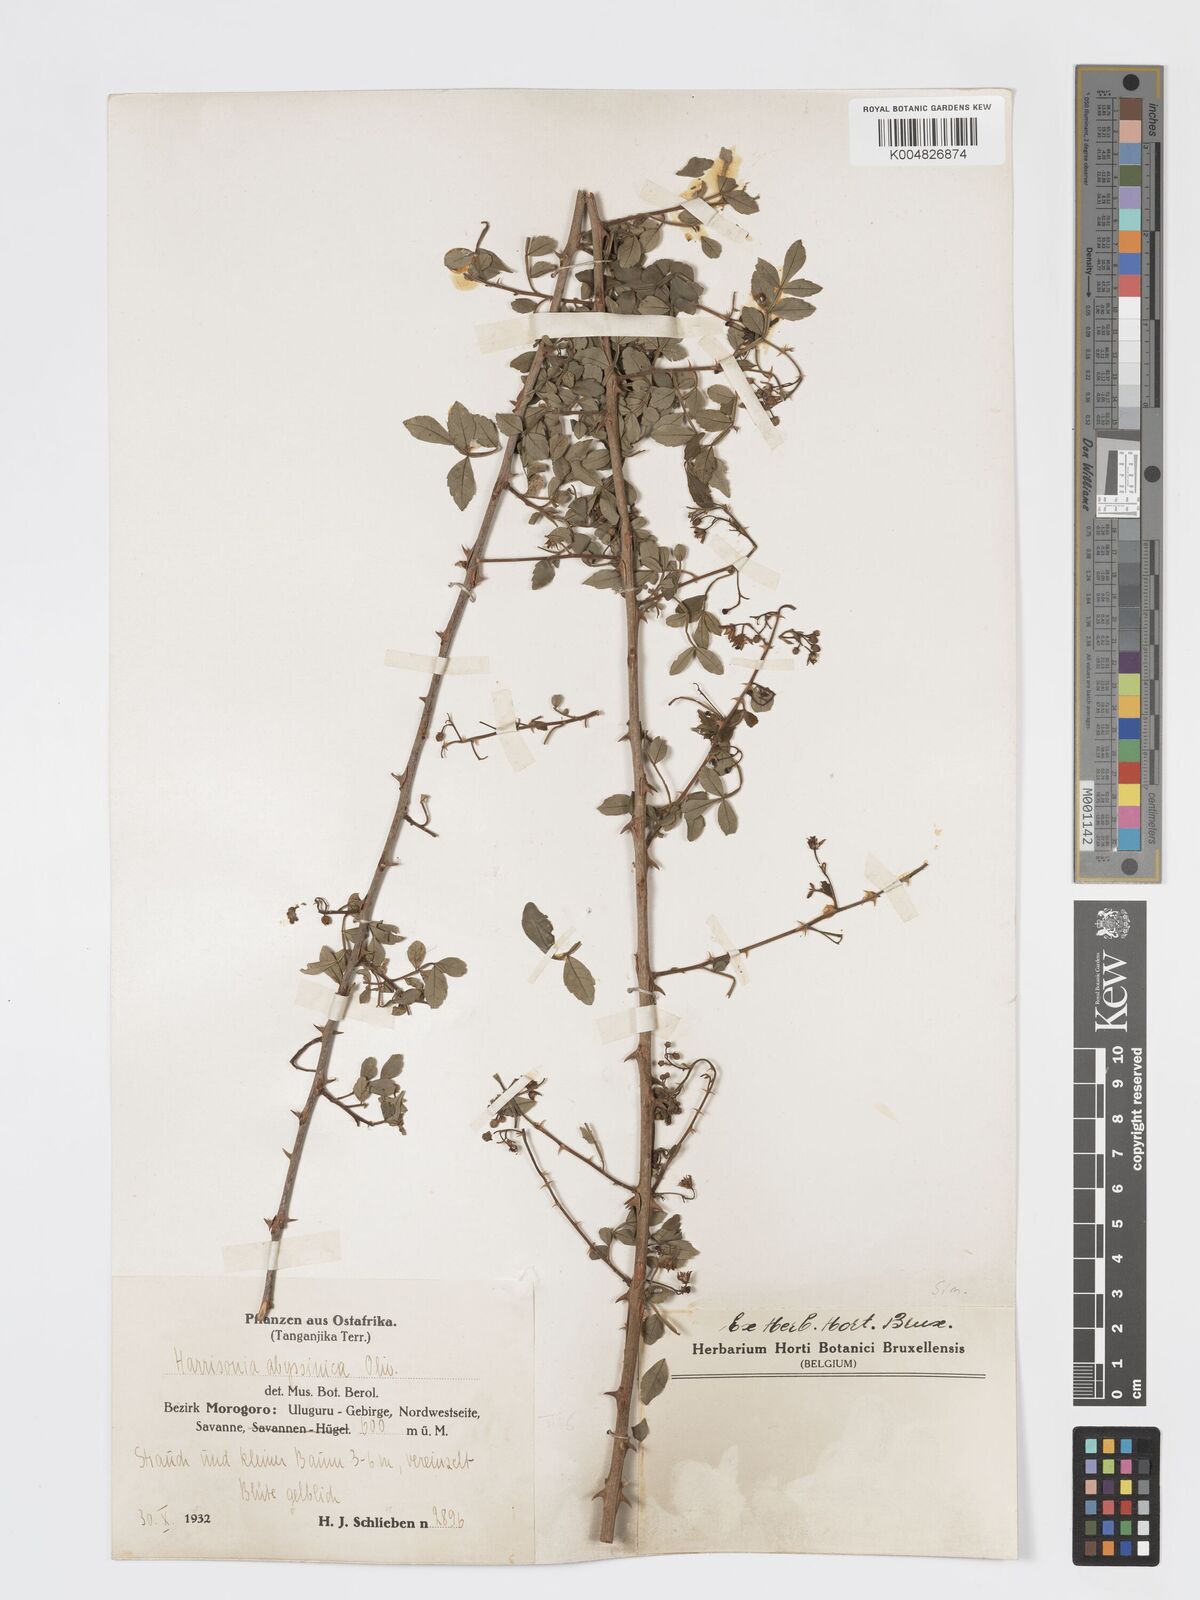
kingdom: Plantae
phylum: Tracheophyta
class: Magnoliopsida
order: Sapindales
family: Rutaceae
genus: Harrisonia
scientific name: Harrisonia abyssinica
